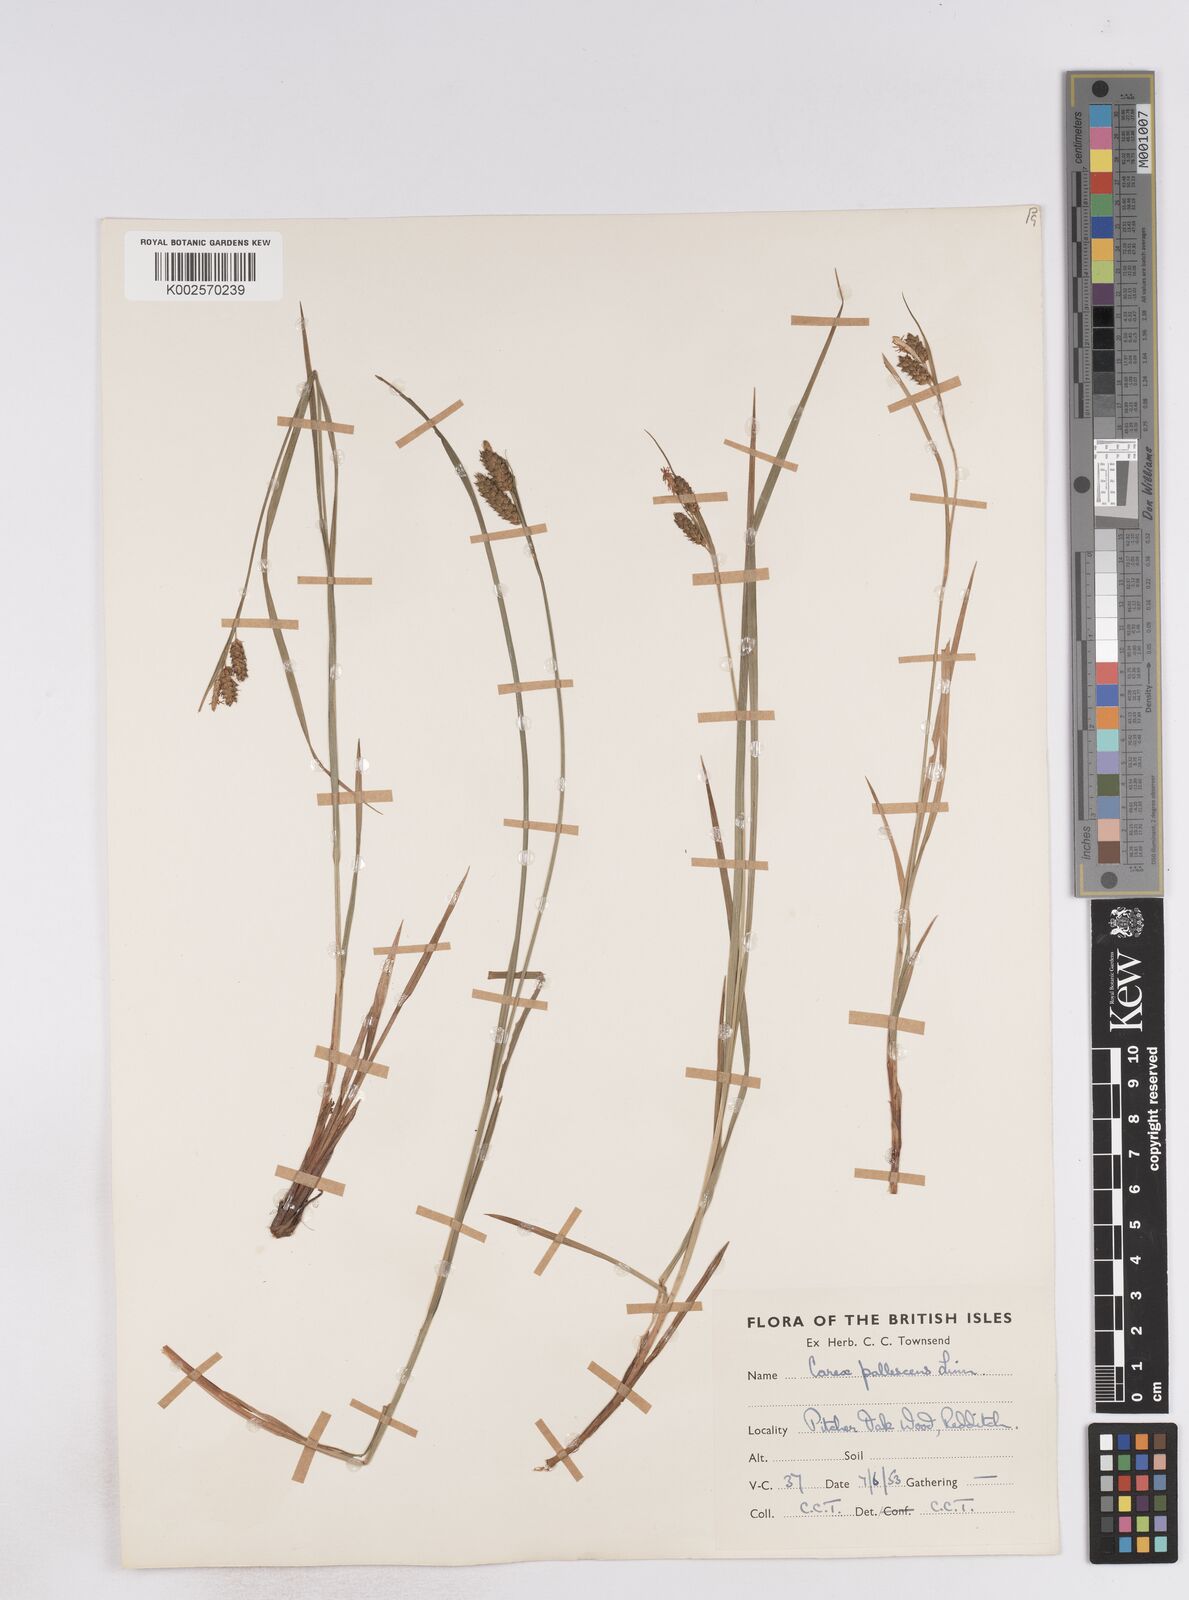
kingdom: Plantae
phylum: Tracheophyta
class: Liliopsida
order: Poales
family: Cyperaceae
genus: Carex
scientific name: Carex pallescens
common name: Pale sedge
